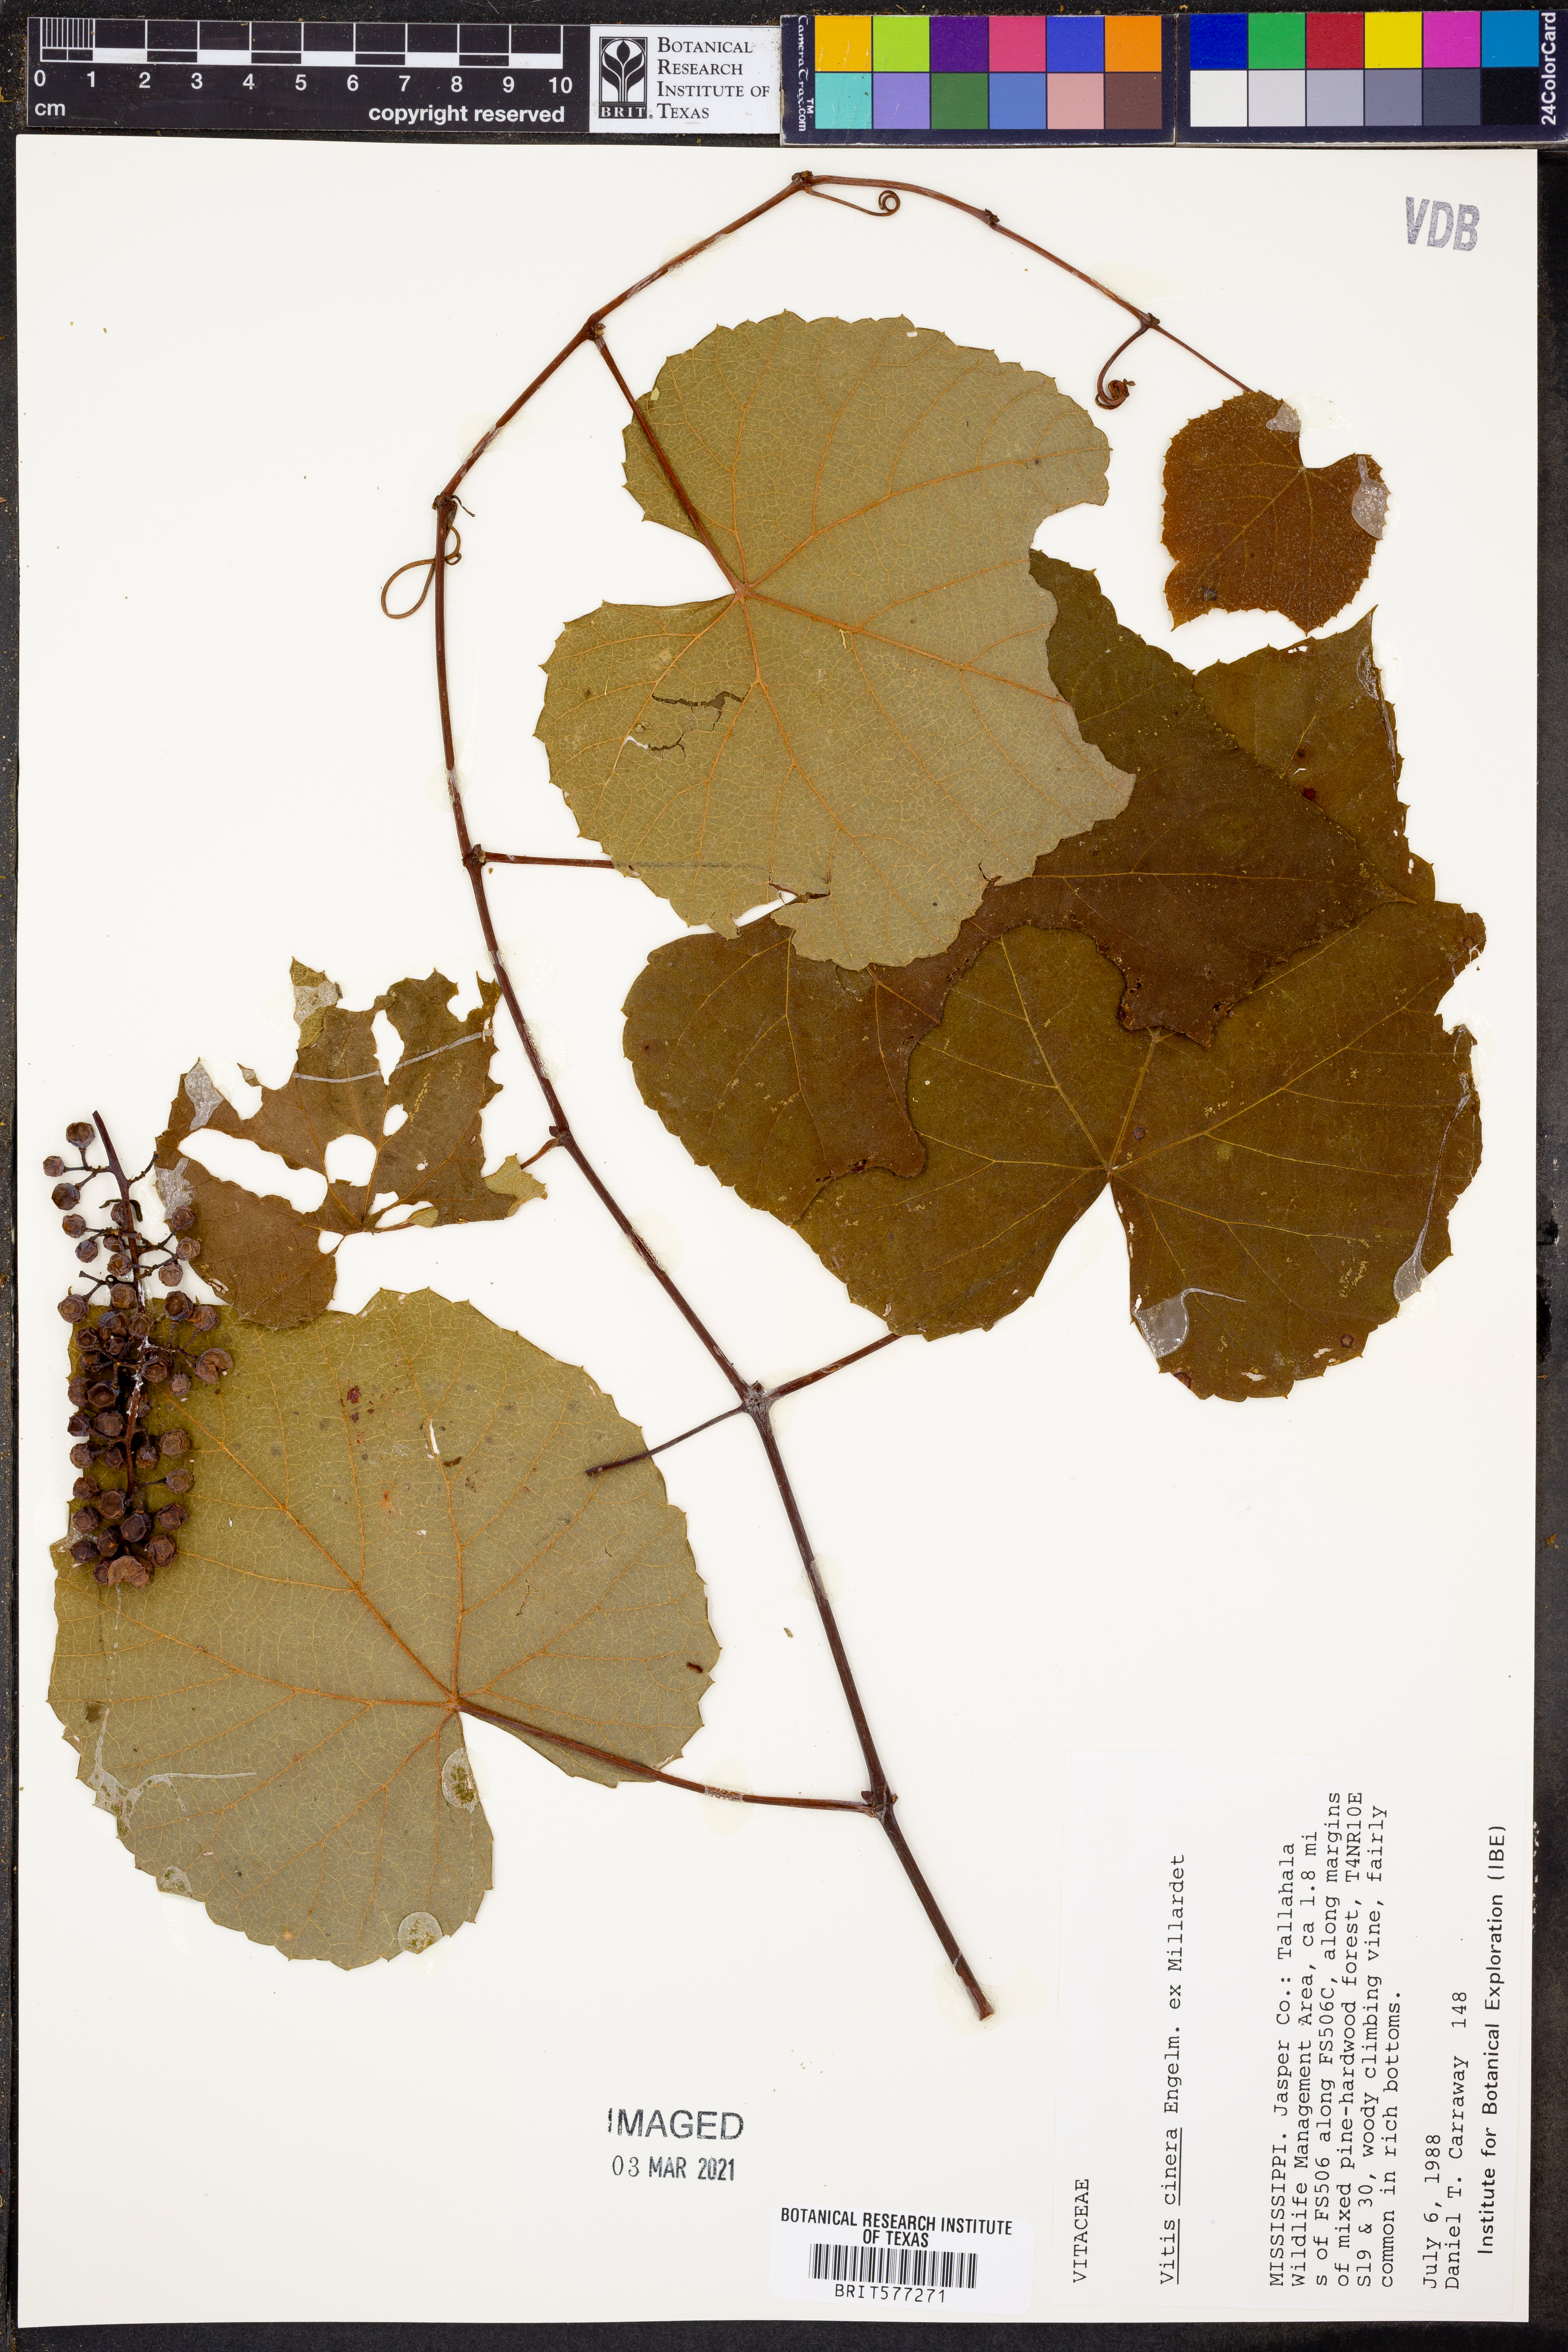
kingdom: Plantae
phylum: Tracheophyta
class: Magnoliopsida
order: Vitales
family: Vitaceae
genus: Vitis
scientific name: Vitis cinerea
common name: Ashy grape
